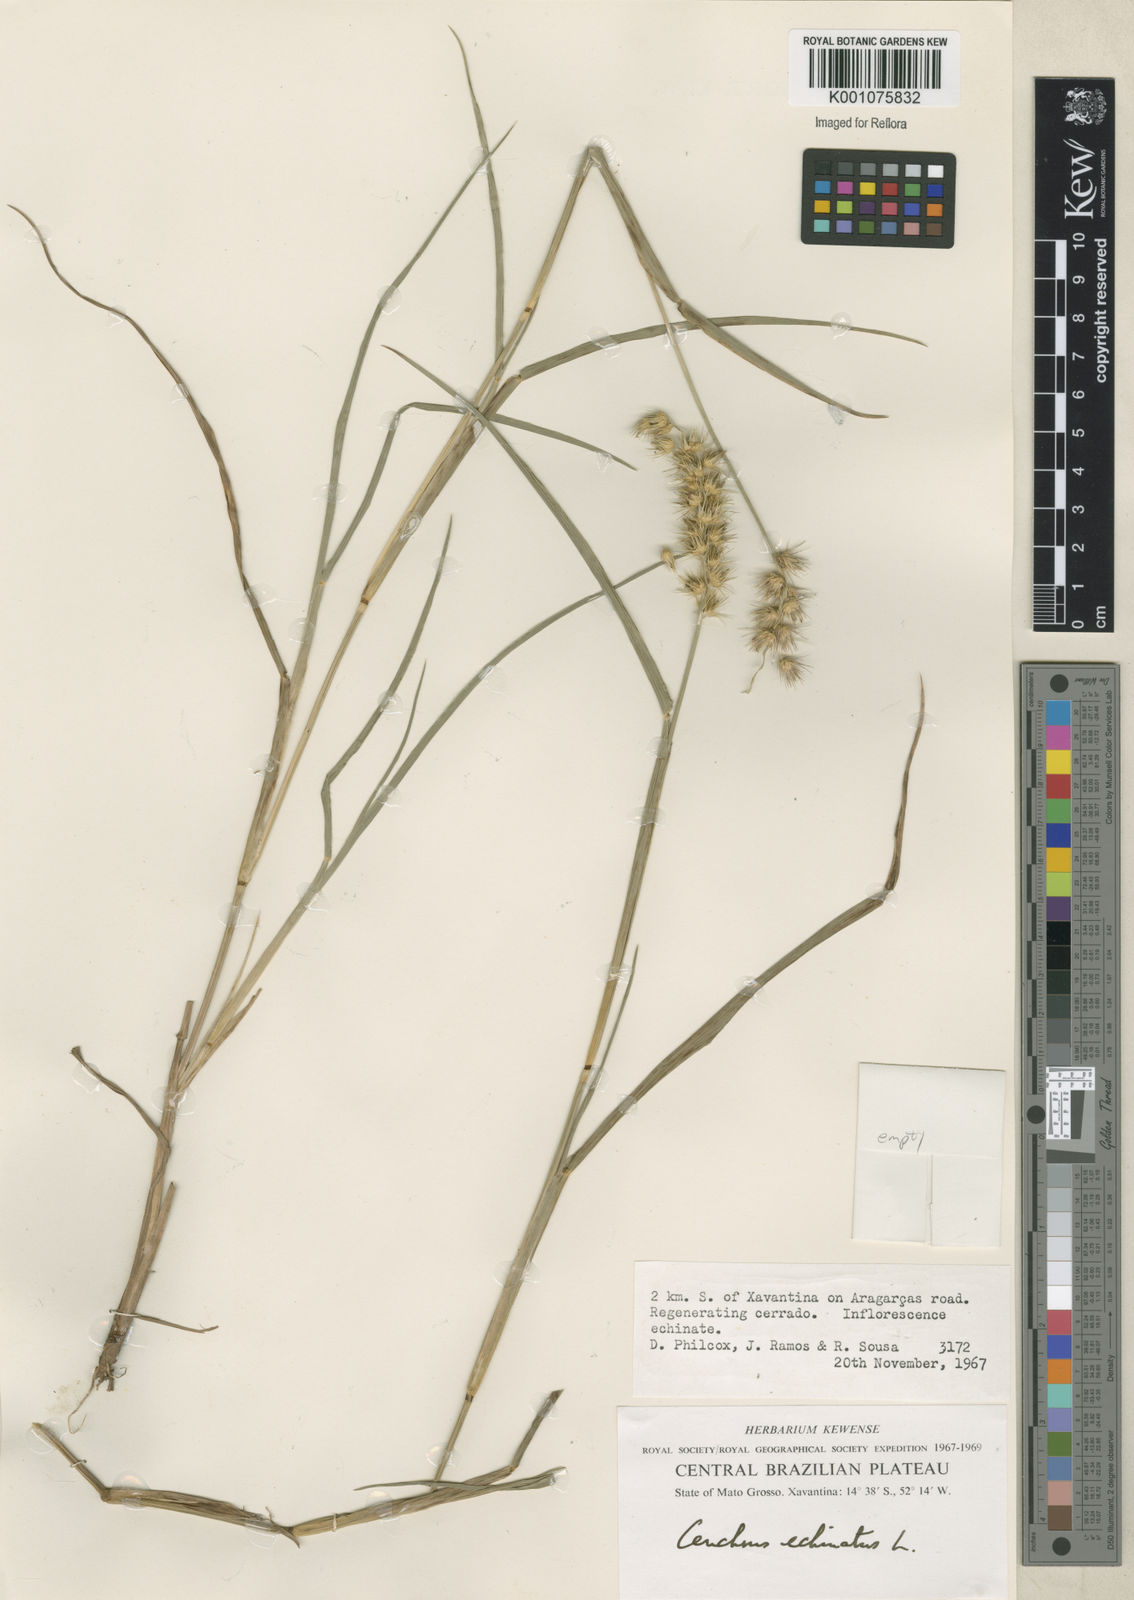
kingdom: Plantae
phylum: Tracheophyta
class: Liliopsida
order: Poales
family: Poaceae
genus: Cenchrus
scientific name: Cenchrus echinatus
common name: Southern sandbur
